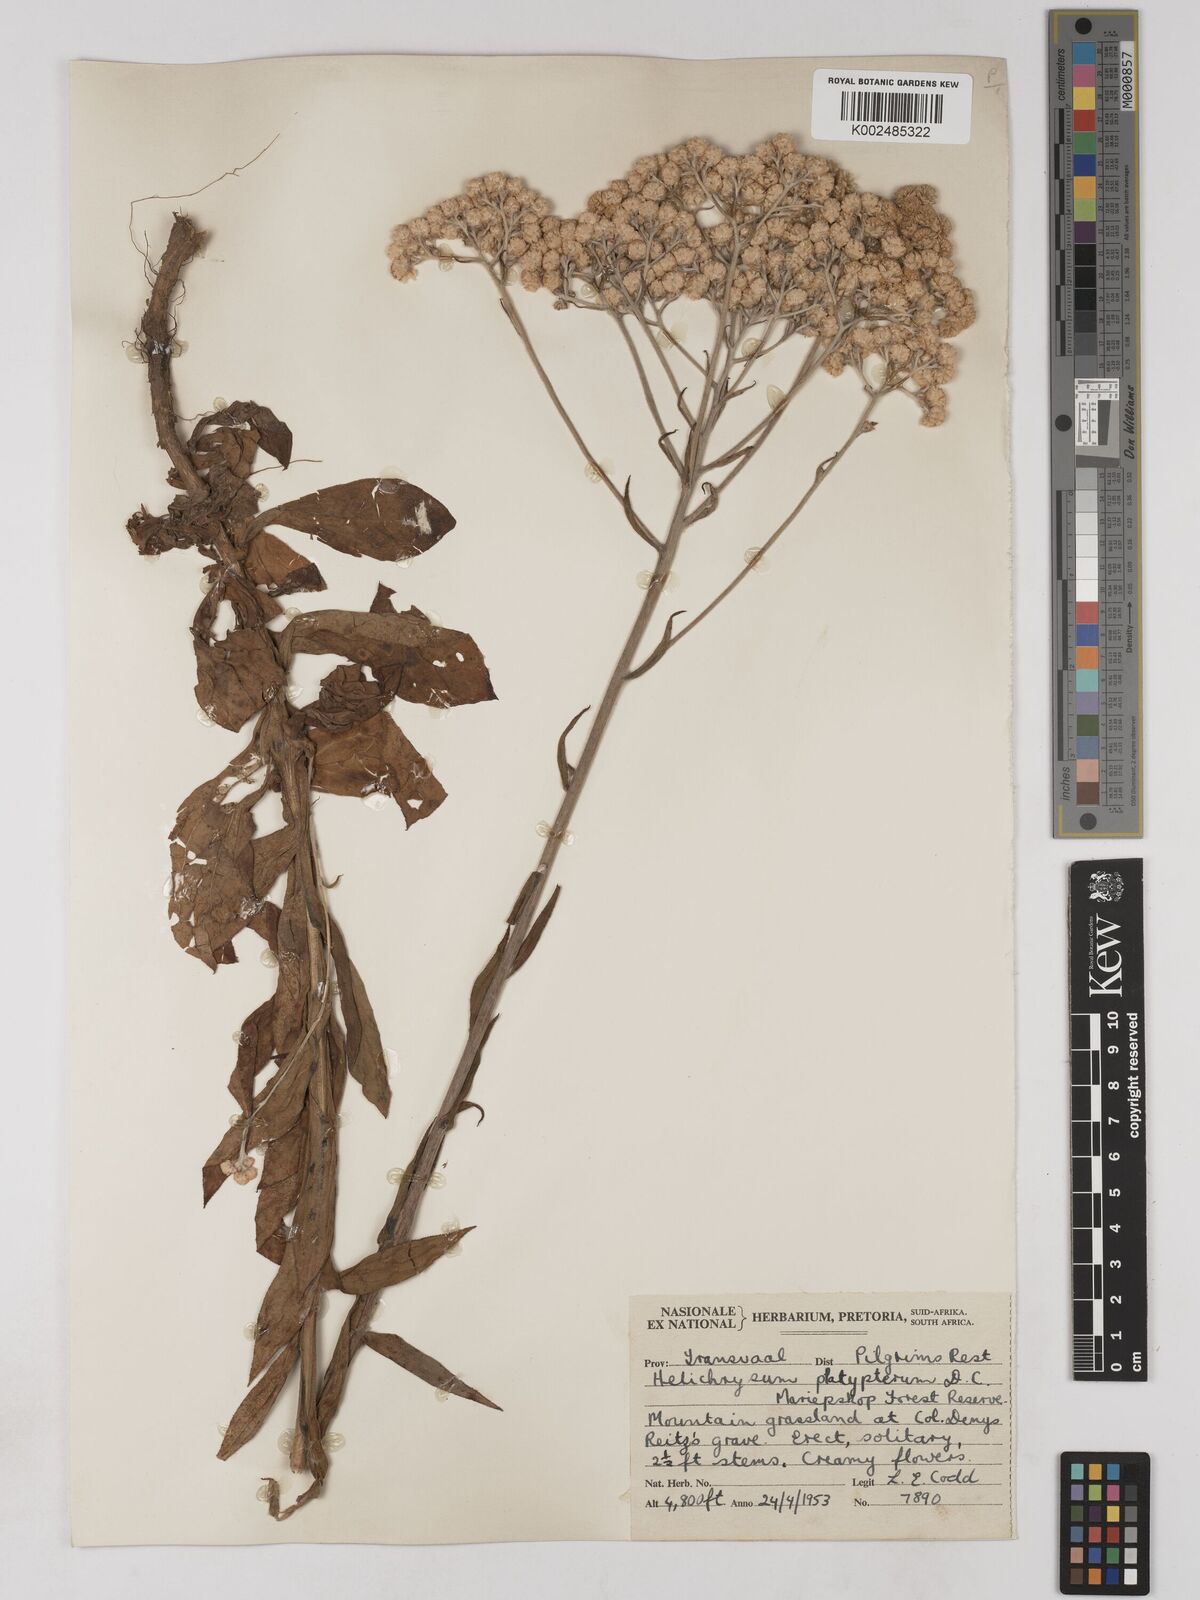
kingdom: Plantae
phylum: Tracheophyta
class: Magnoliopsida
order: Asterales
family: Asteraceae
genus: Helichrysum
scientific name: Helichrysum platypterum
